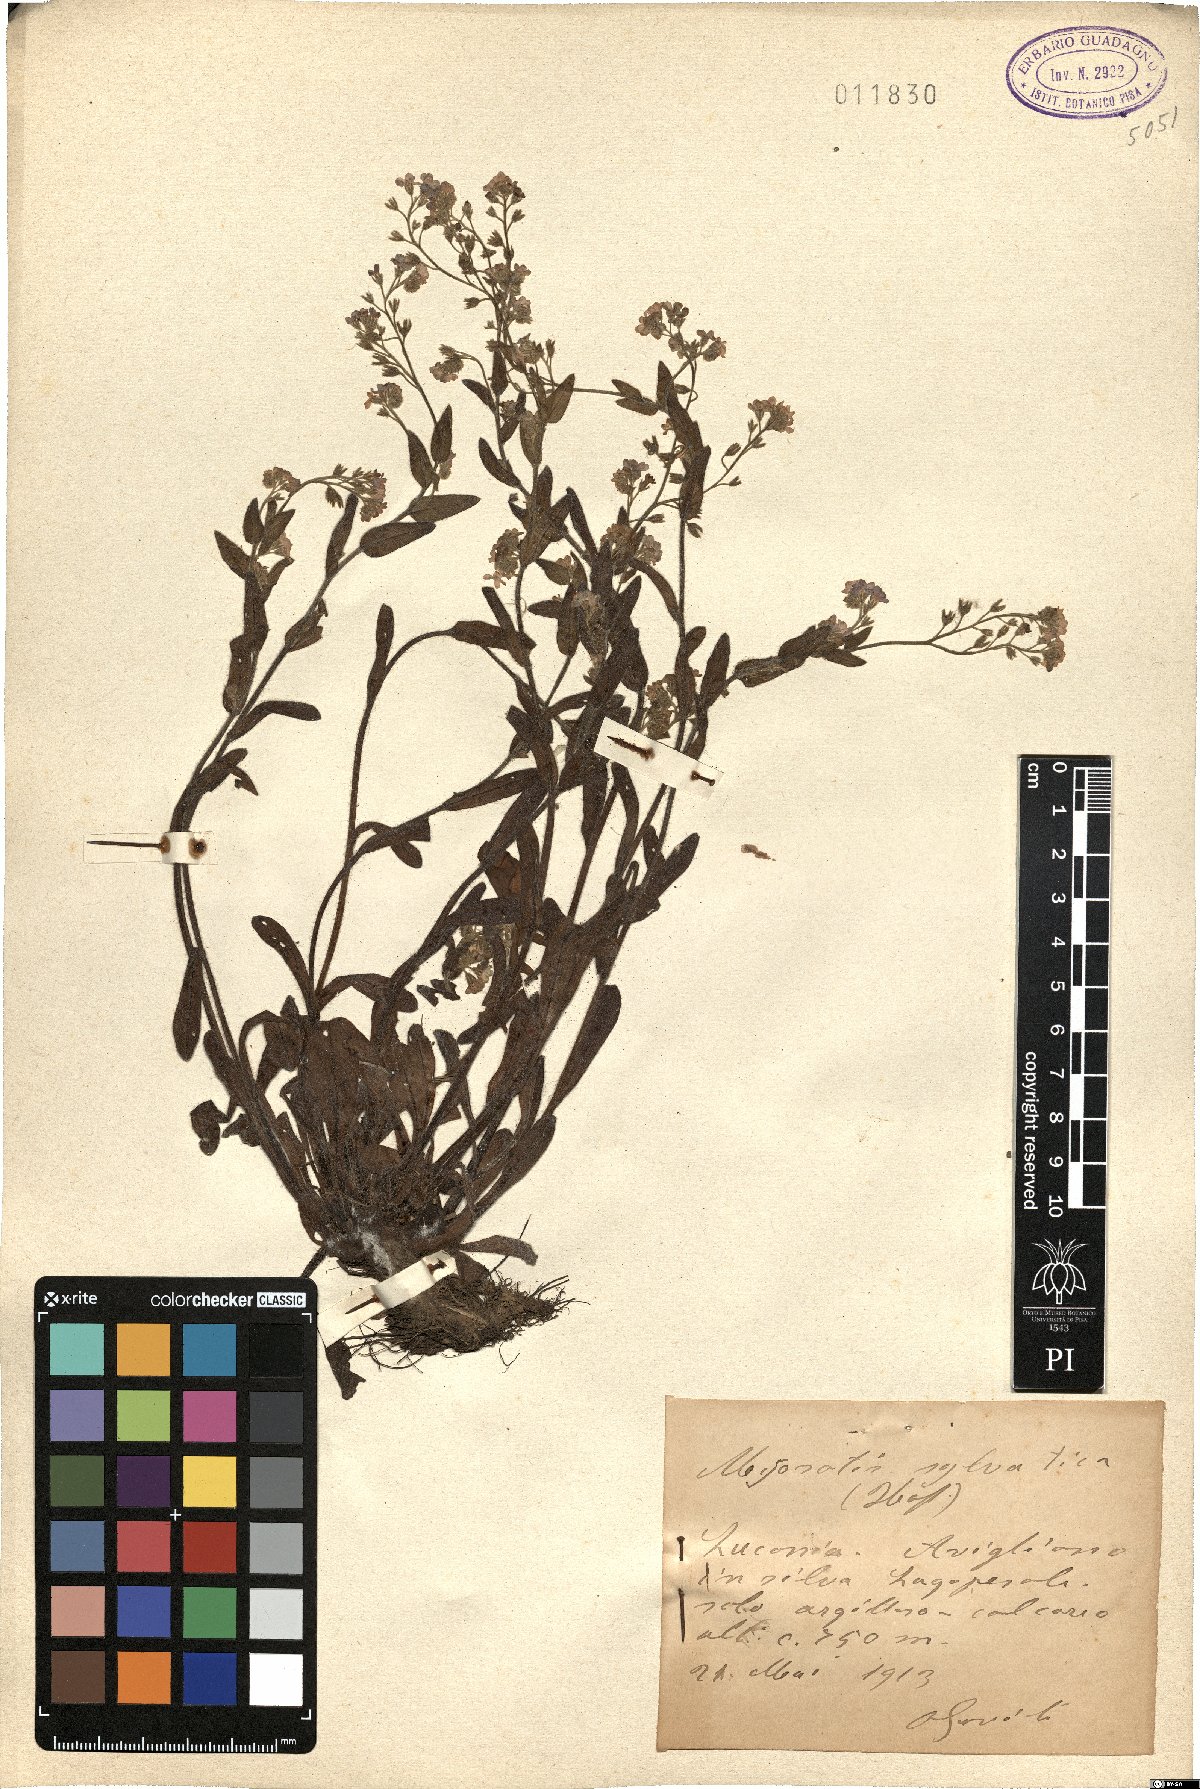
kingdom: Plantae
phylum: Tracheophyta
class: Magnoliopsida
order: Boraginales
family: Boraginaceae
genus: Myosotis
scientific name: Myosotis sylvatica
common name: Wood forget-me-not
